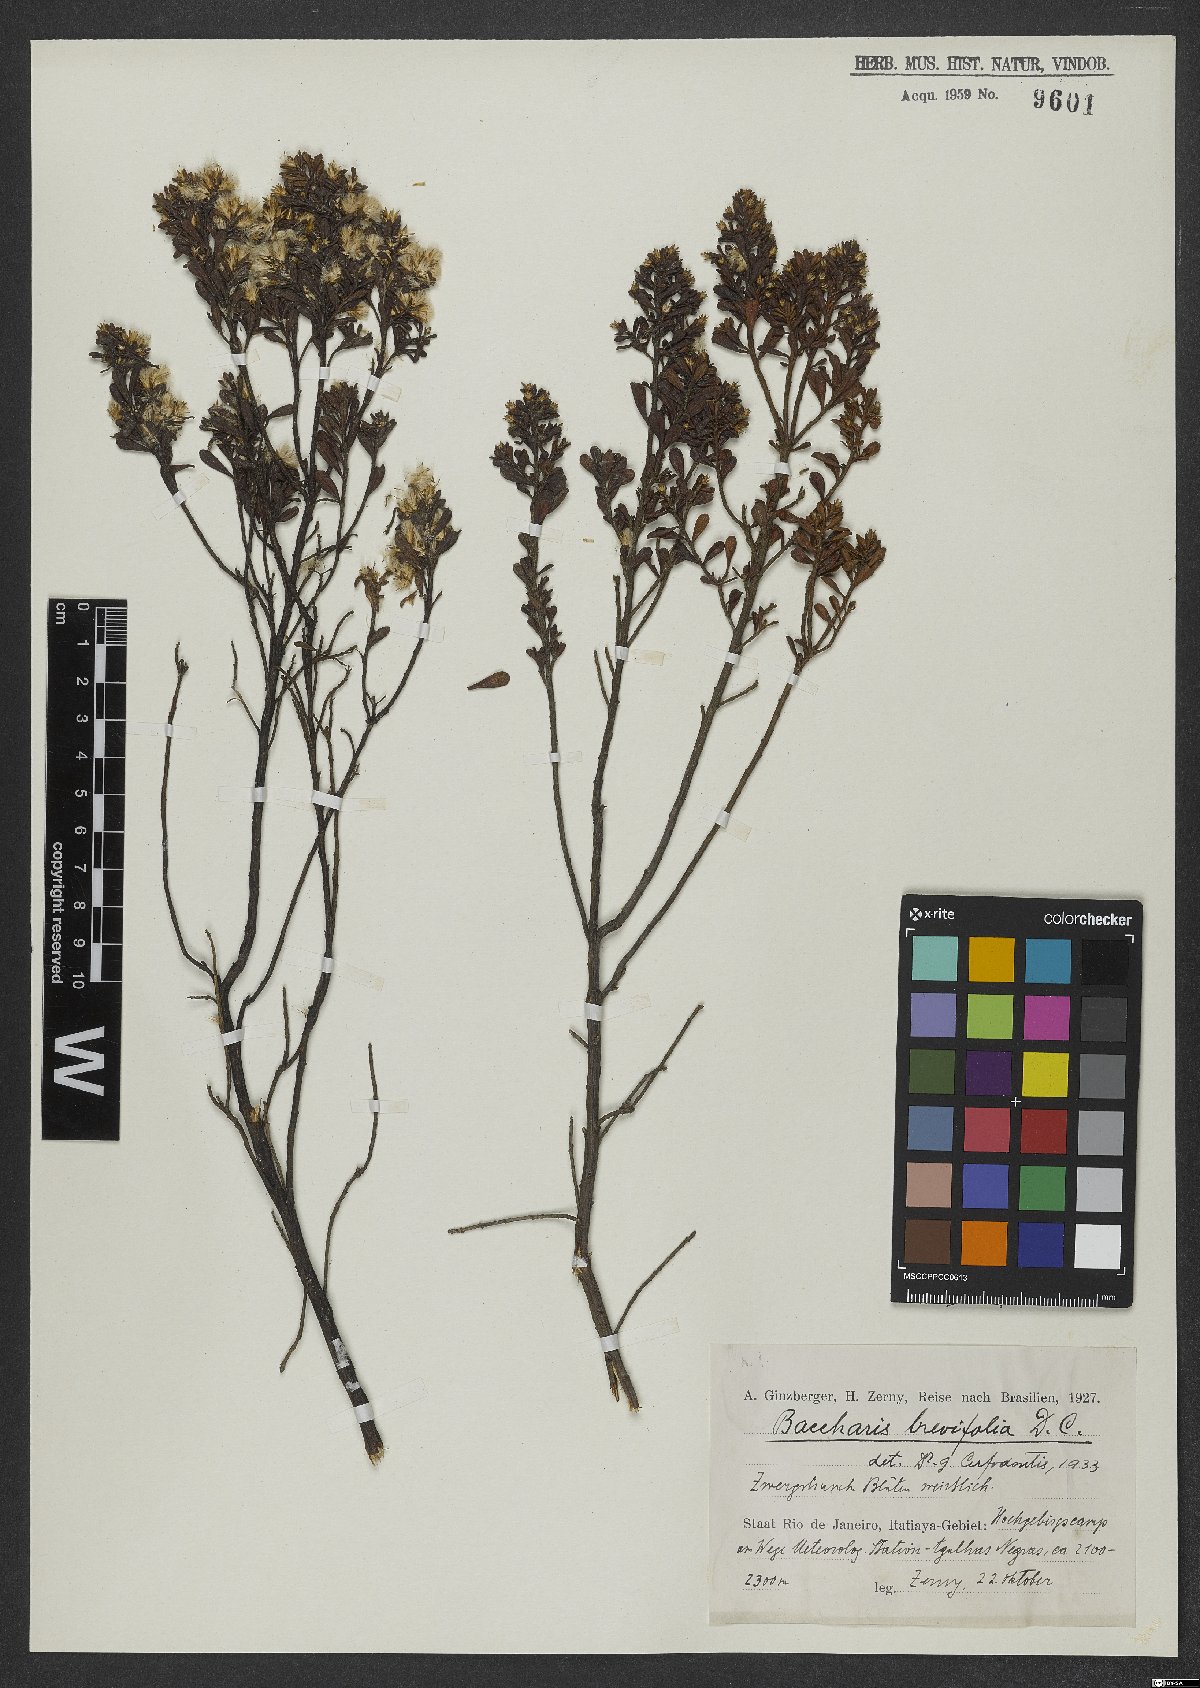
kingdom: Plantae
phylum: Tracheophyta
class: Magnoliopsida
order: Asterales
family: Asteraceae
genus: Baccharis
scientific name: Baccharis brevifolia
